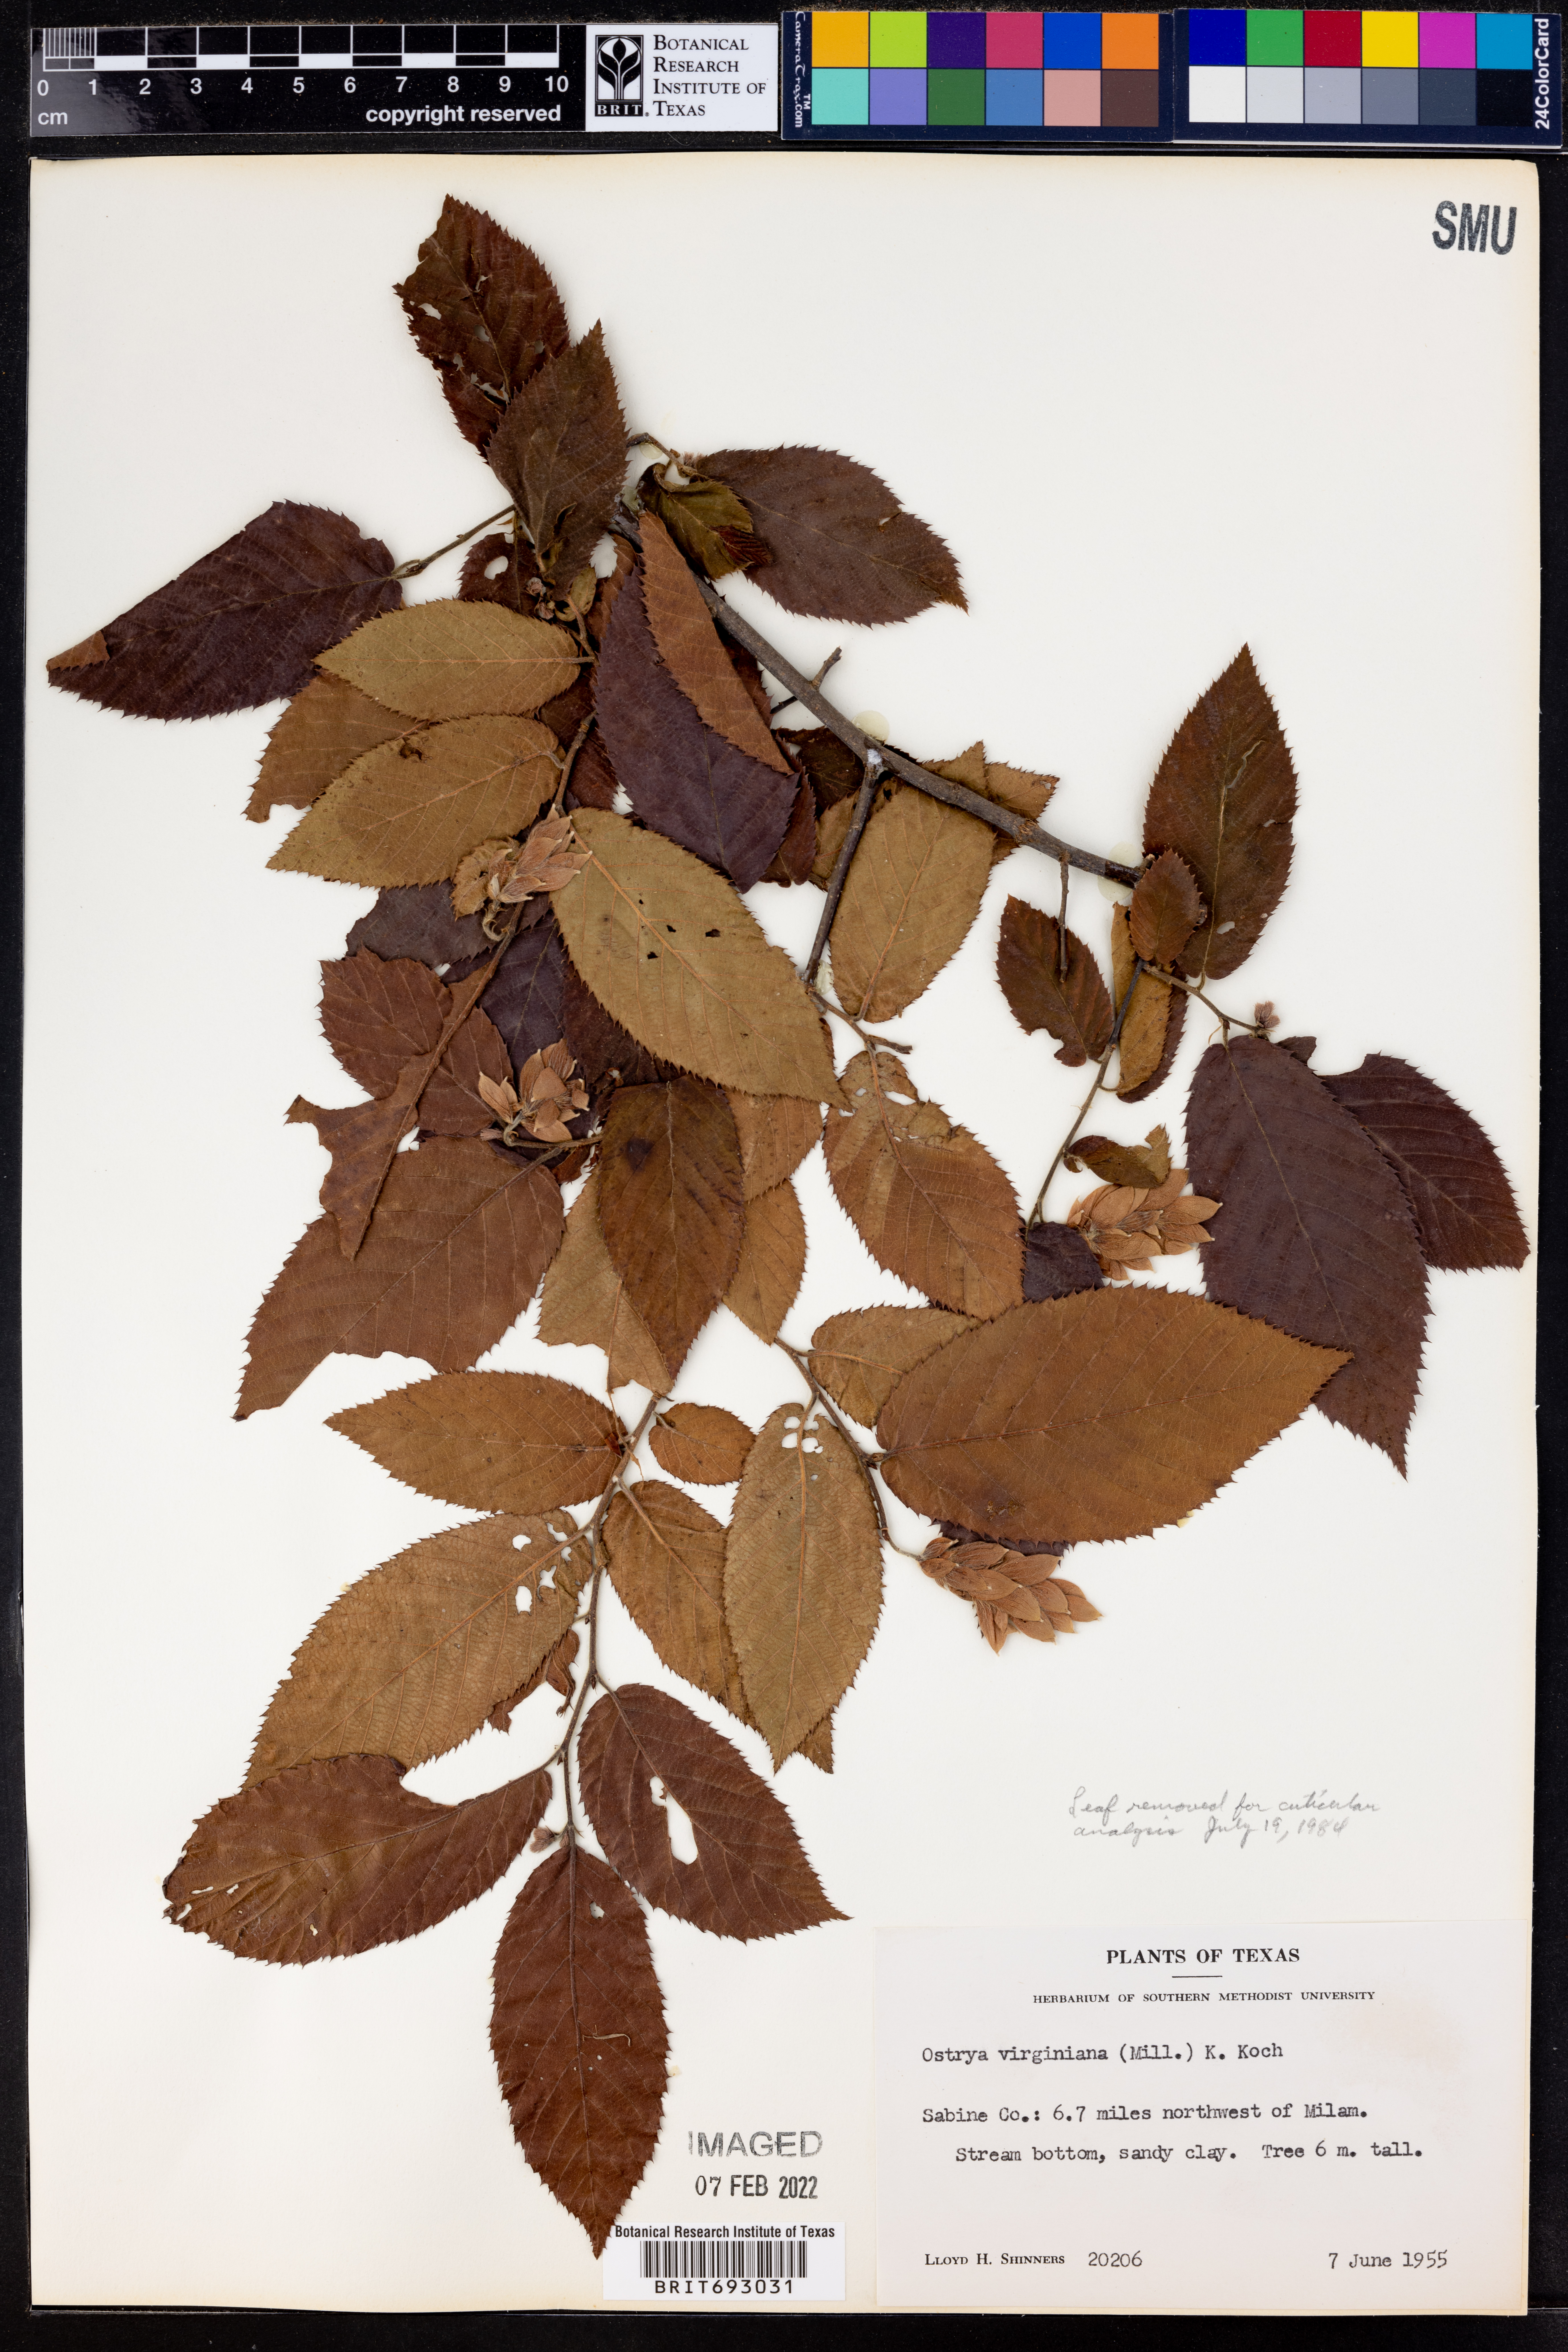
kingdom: Plantae
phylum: Tracheophyta
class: Magnoliopsida
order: Fagales
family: Betulaceae
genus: Ostrya
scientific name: Ostrya virginiana
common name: Ironwood
